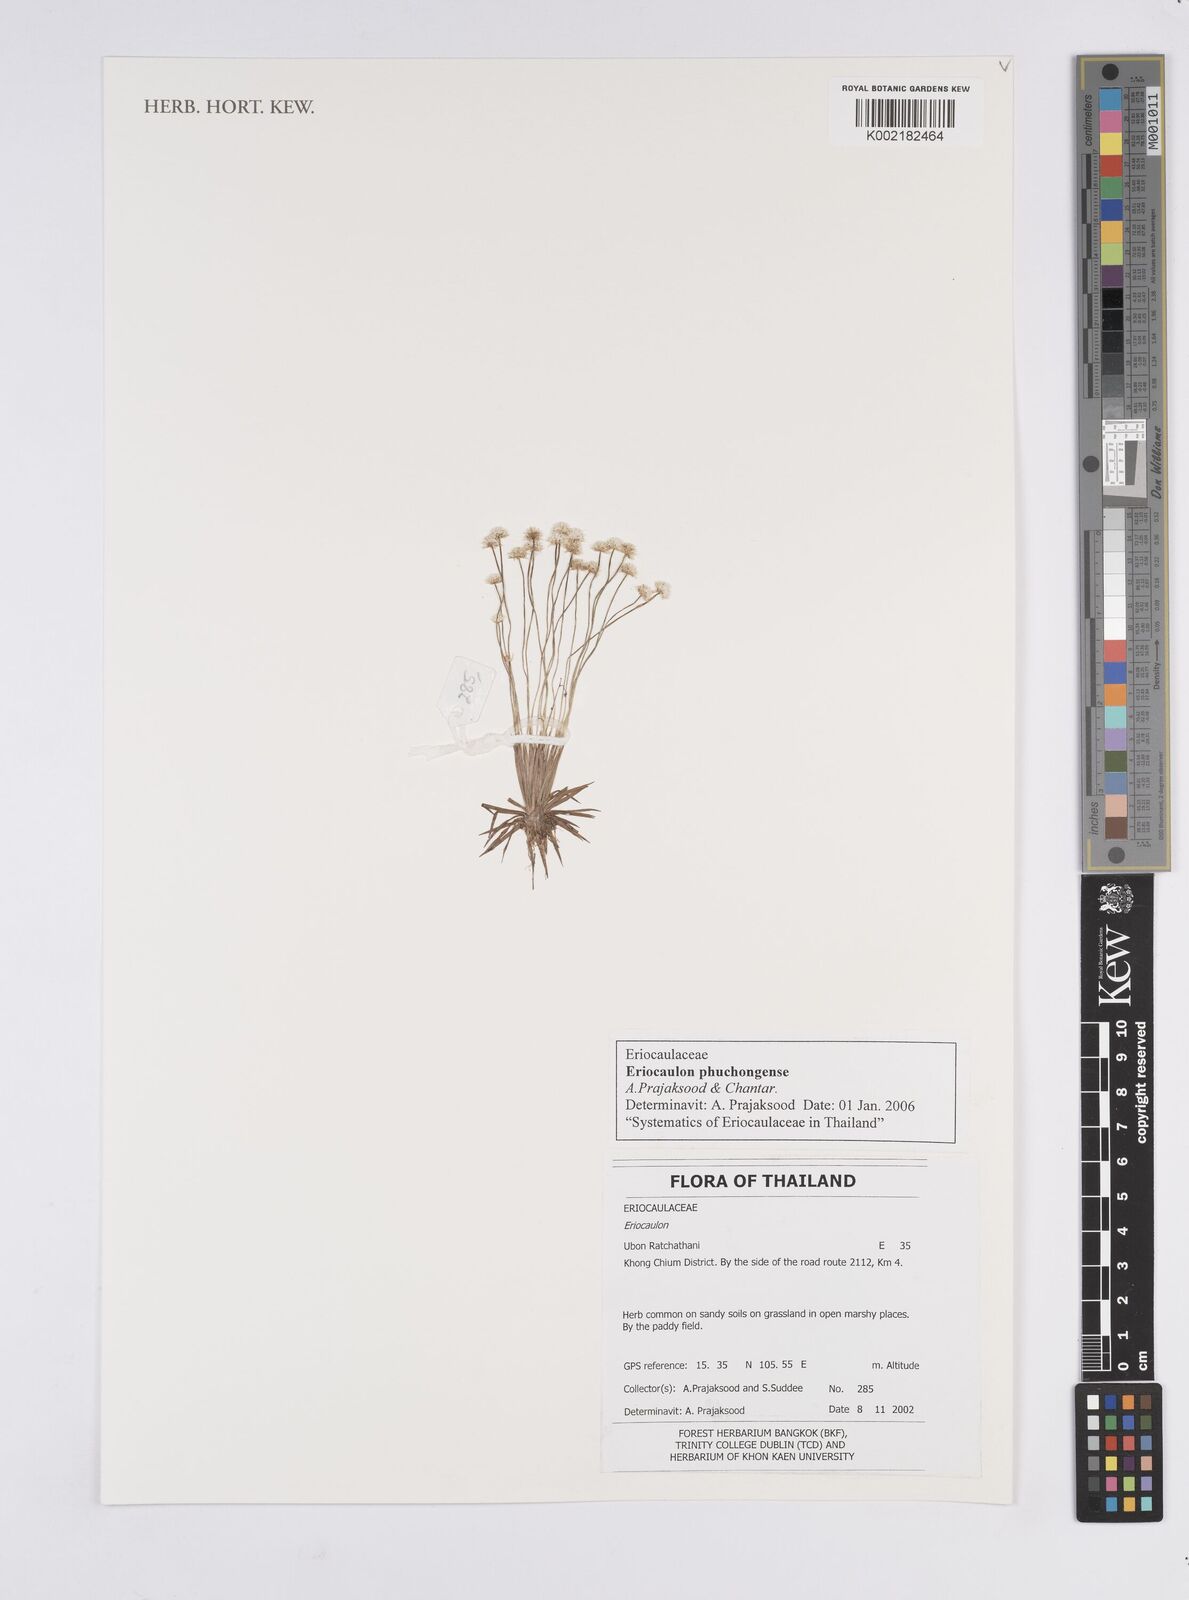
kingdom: Plantae
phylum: Tracheophyta
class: Liliopsida
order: Poales
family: Eriocaulaceae
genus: Eriocaulon
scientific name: Eriocaulon phuchongense
